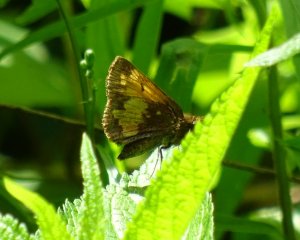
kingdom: Animalia
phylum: Arthropoda
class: Insecta
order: Lepidoptera
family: Hesperiidae
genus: Lon
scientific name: Lon hobomok
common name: Hobomok Skipper
